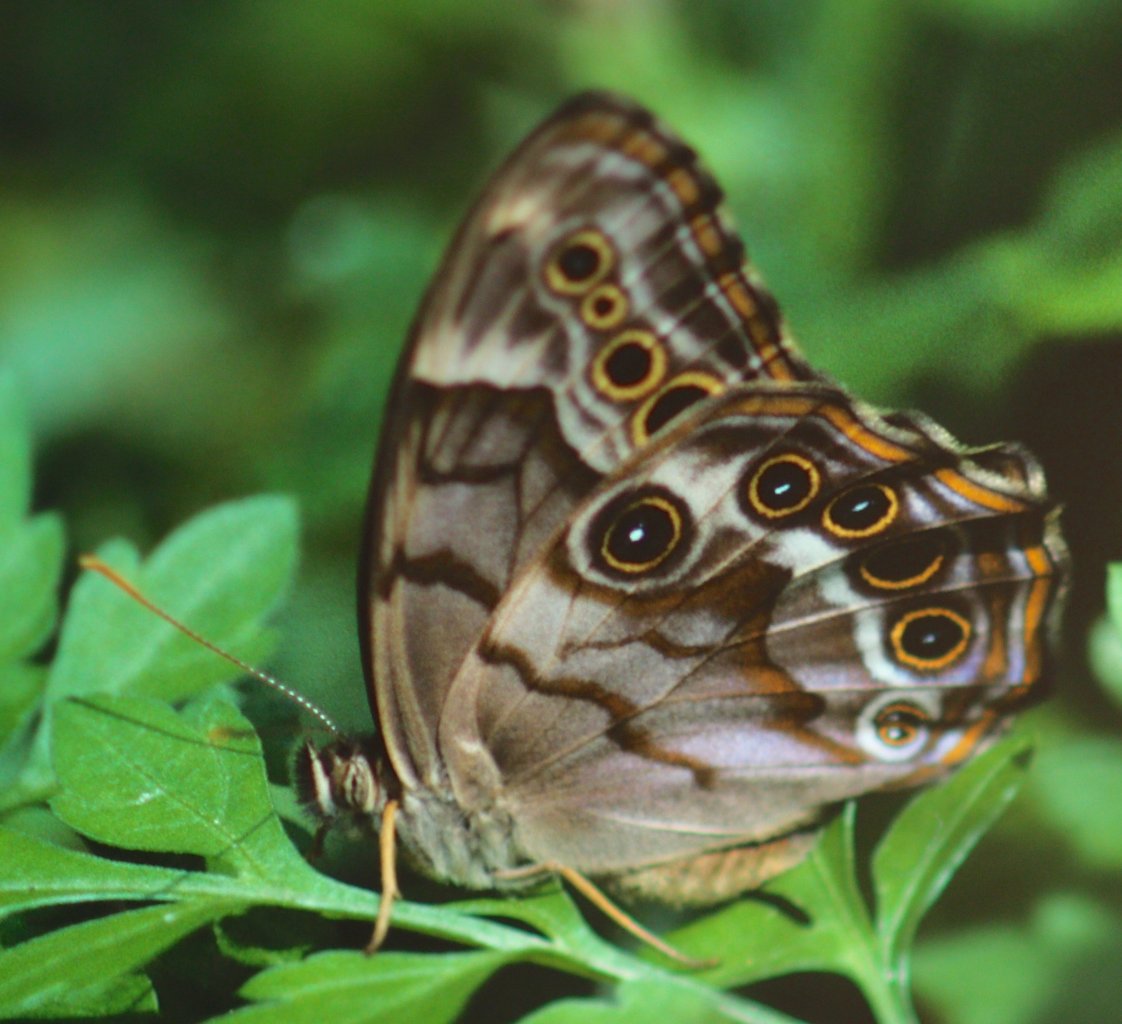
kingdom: Animalia
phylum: Arthropoda
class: Insecta
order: Lepidoptera
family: Nymphalidae
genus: Enodia
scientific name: Enodia portlandia
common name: Southern Pearly Eye
